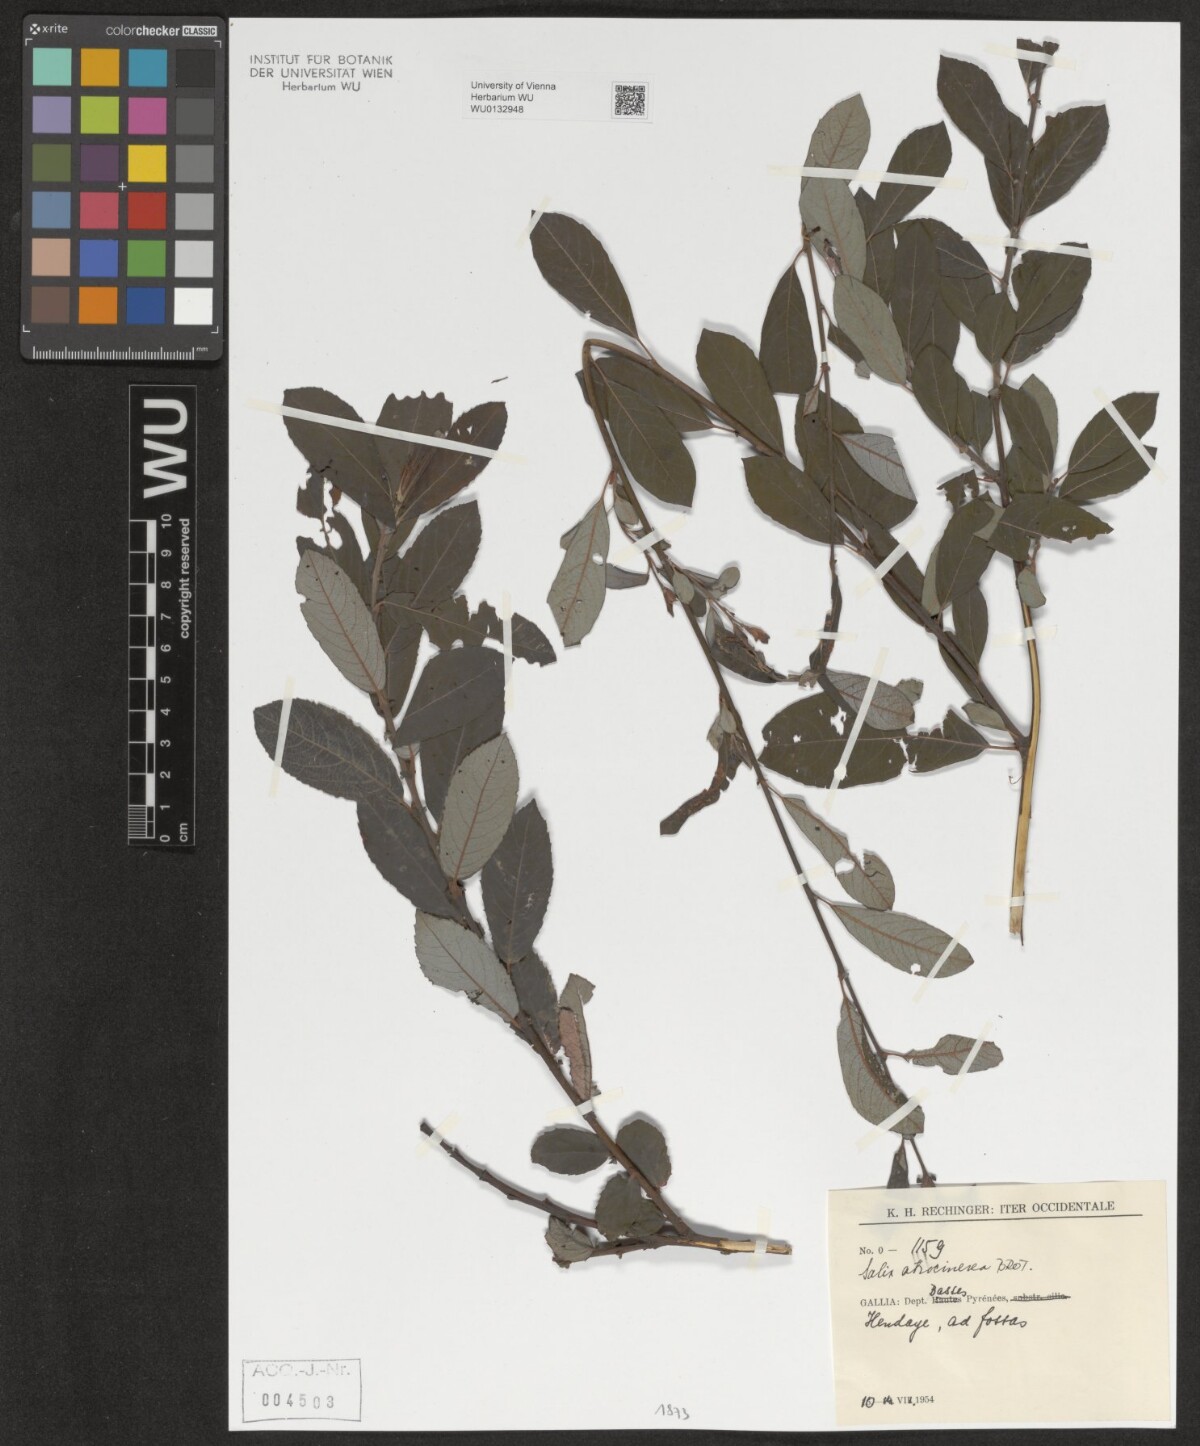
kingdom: Plantae
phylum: Tracheophyta
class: Magnoliopsida
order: Malpighiales
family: Salicaceae
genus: Salix
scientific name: Salix atrocinerea
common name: Rusty willow
